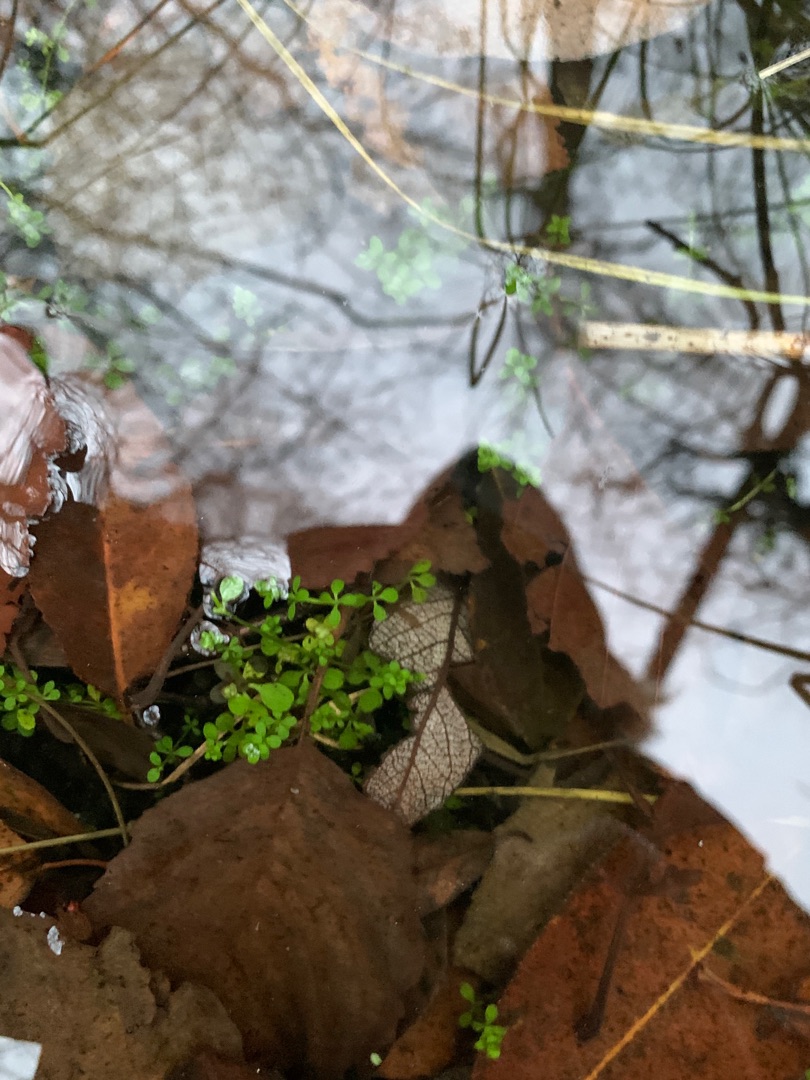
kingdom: Plantae
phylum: Tracheophyta
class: Magnoliopsida
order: Gentianales
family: Rubiaceae
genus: Galium
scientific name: Galium palustre
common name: Kær-snerre
